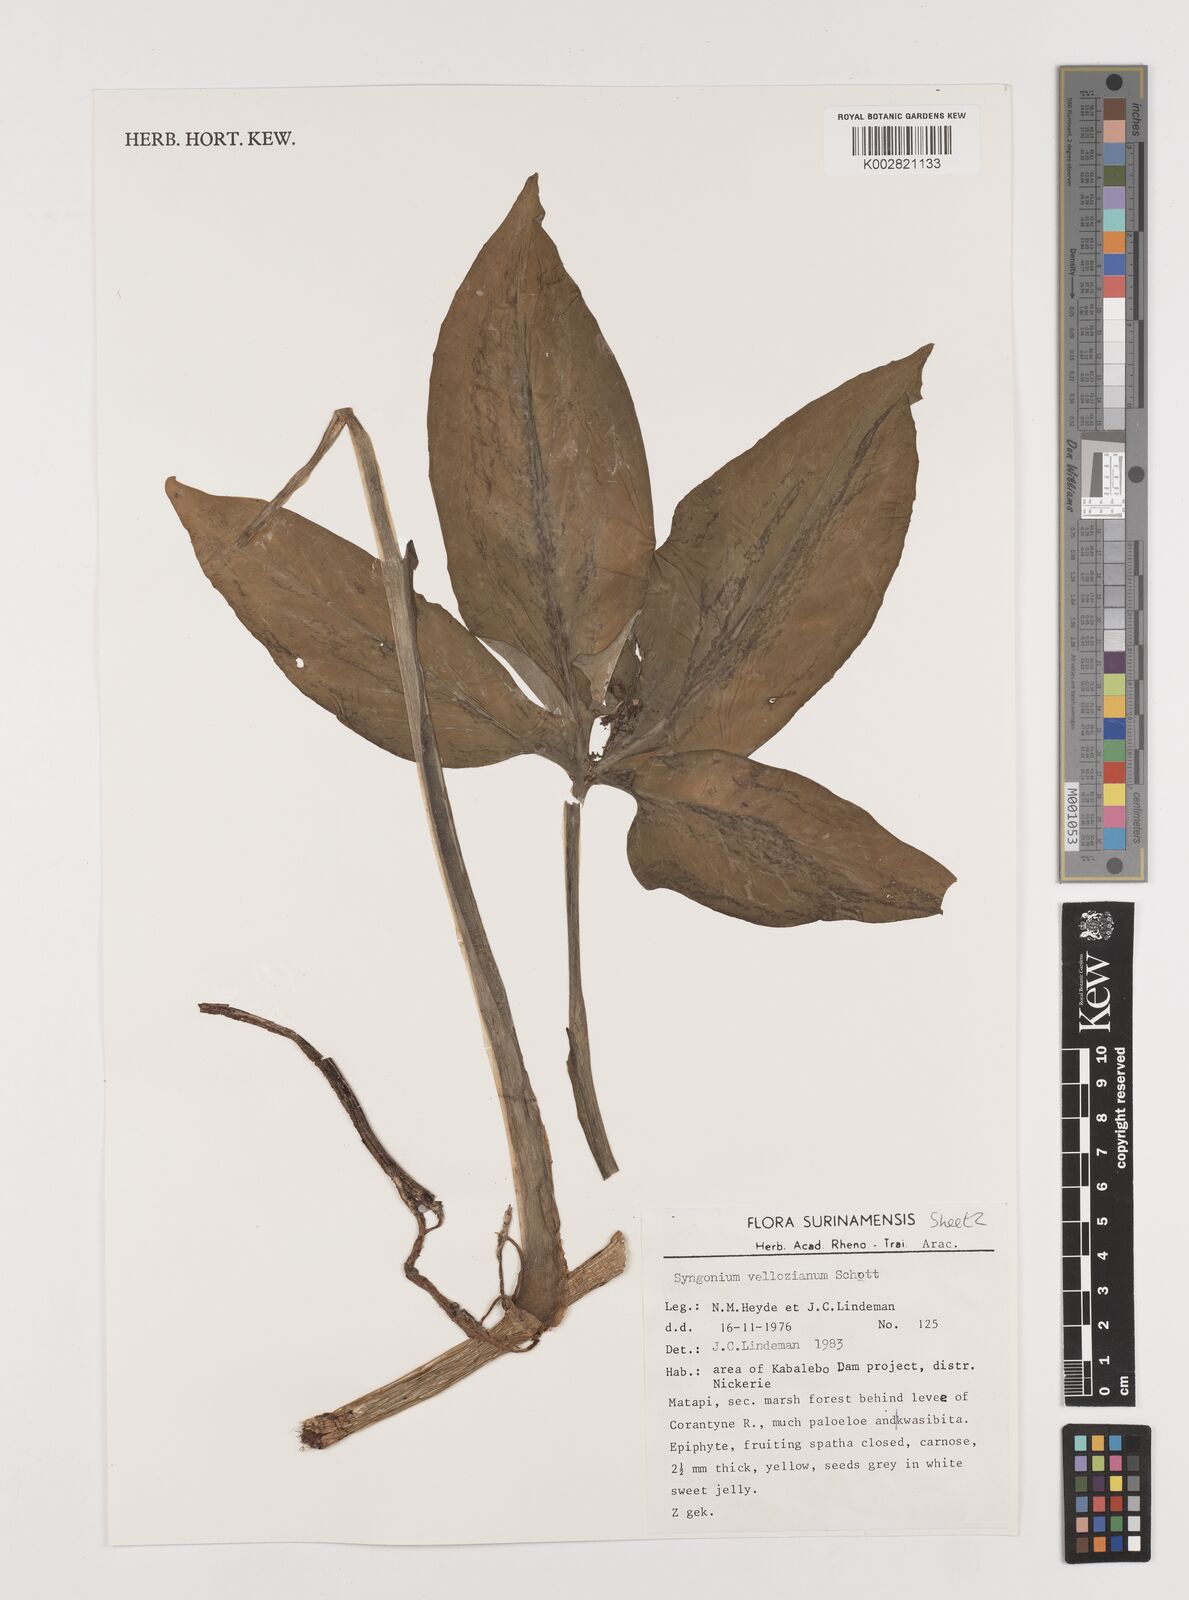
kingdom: Plantae
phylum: Tracheophyta
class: Liliopsida
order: Alismatales
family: Araceae
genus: Syngonium
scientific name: Syngonium podophyllum
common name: American evergreen
